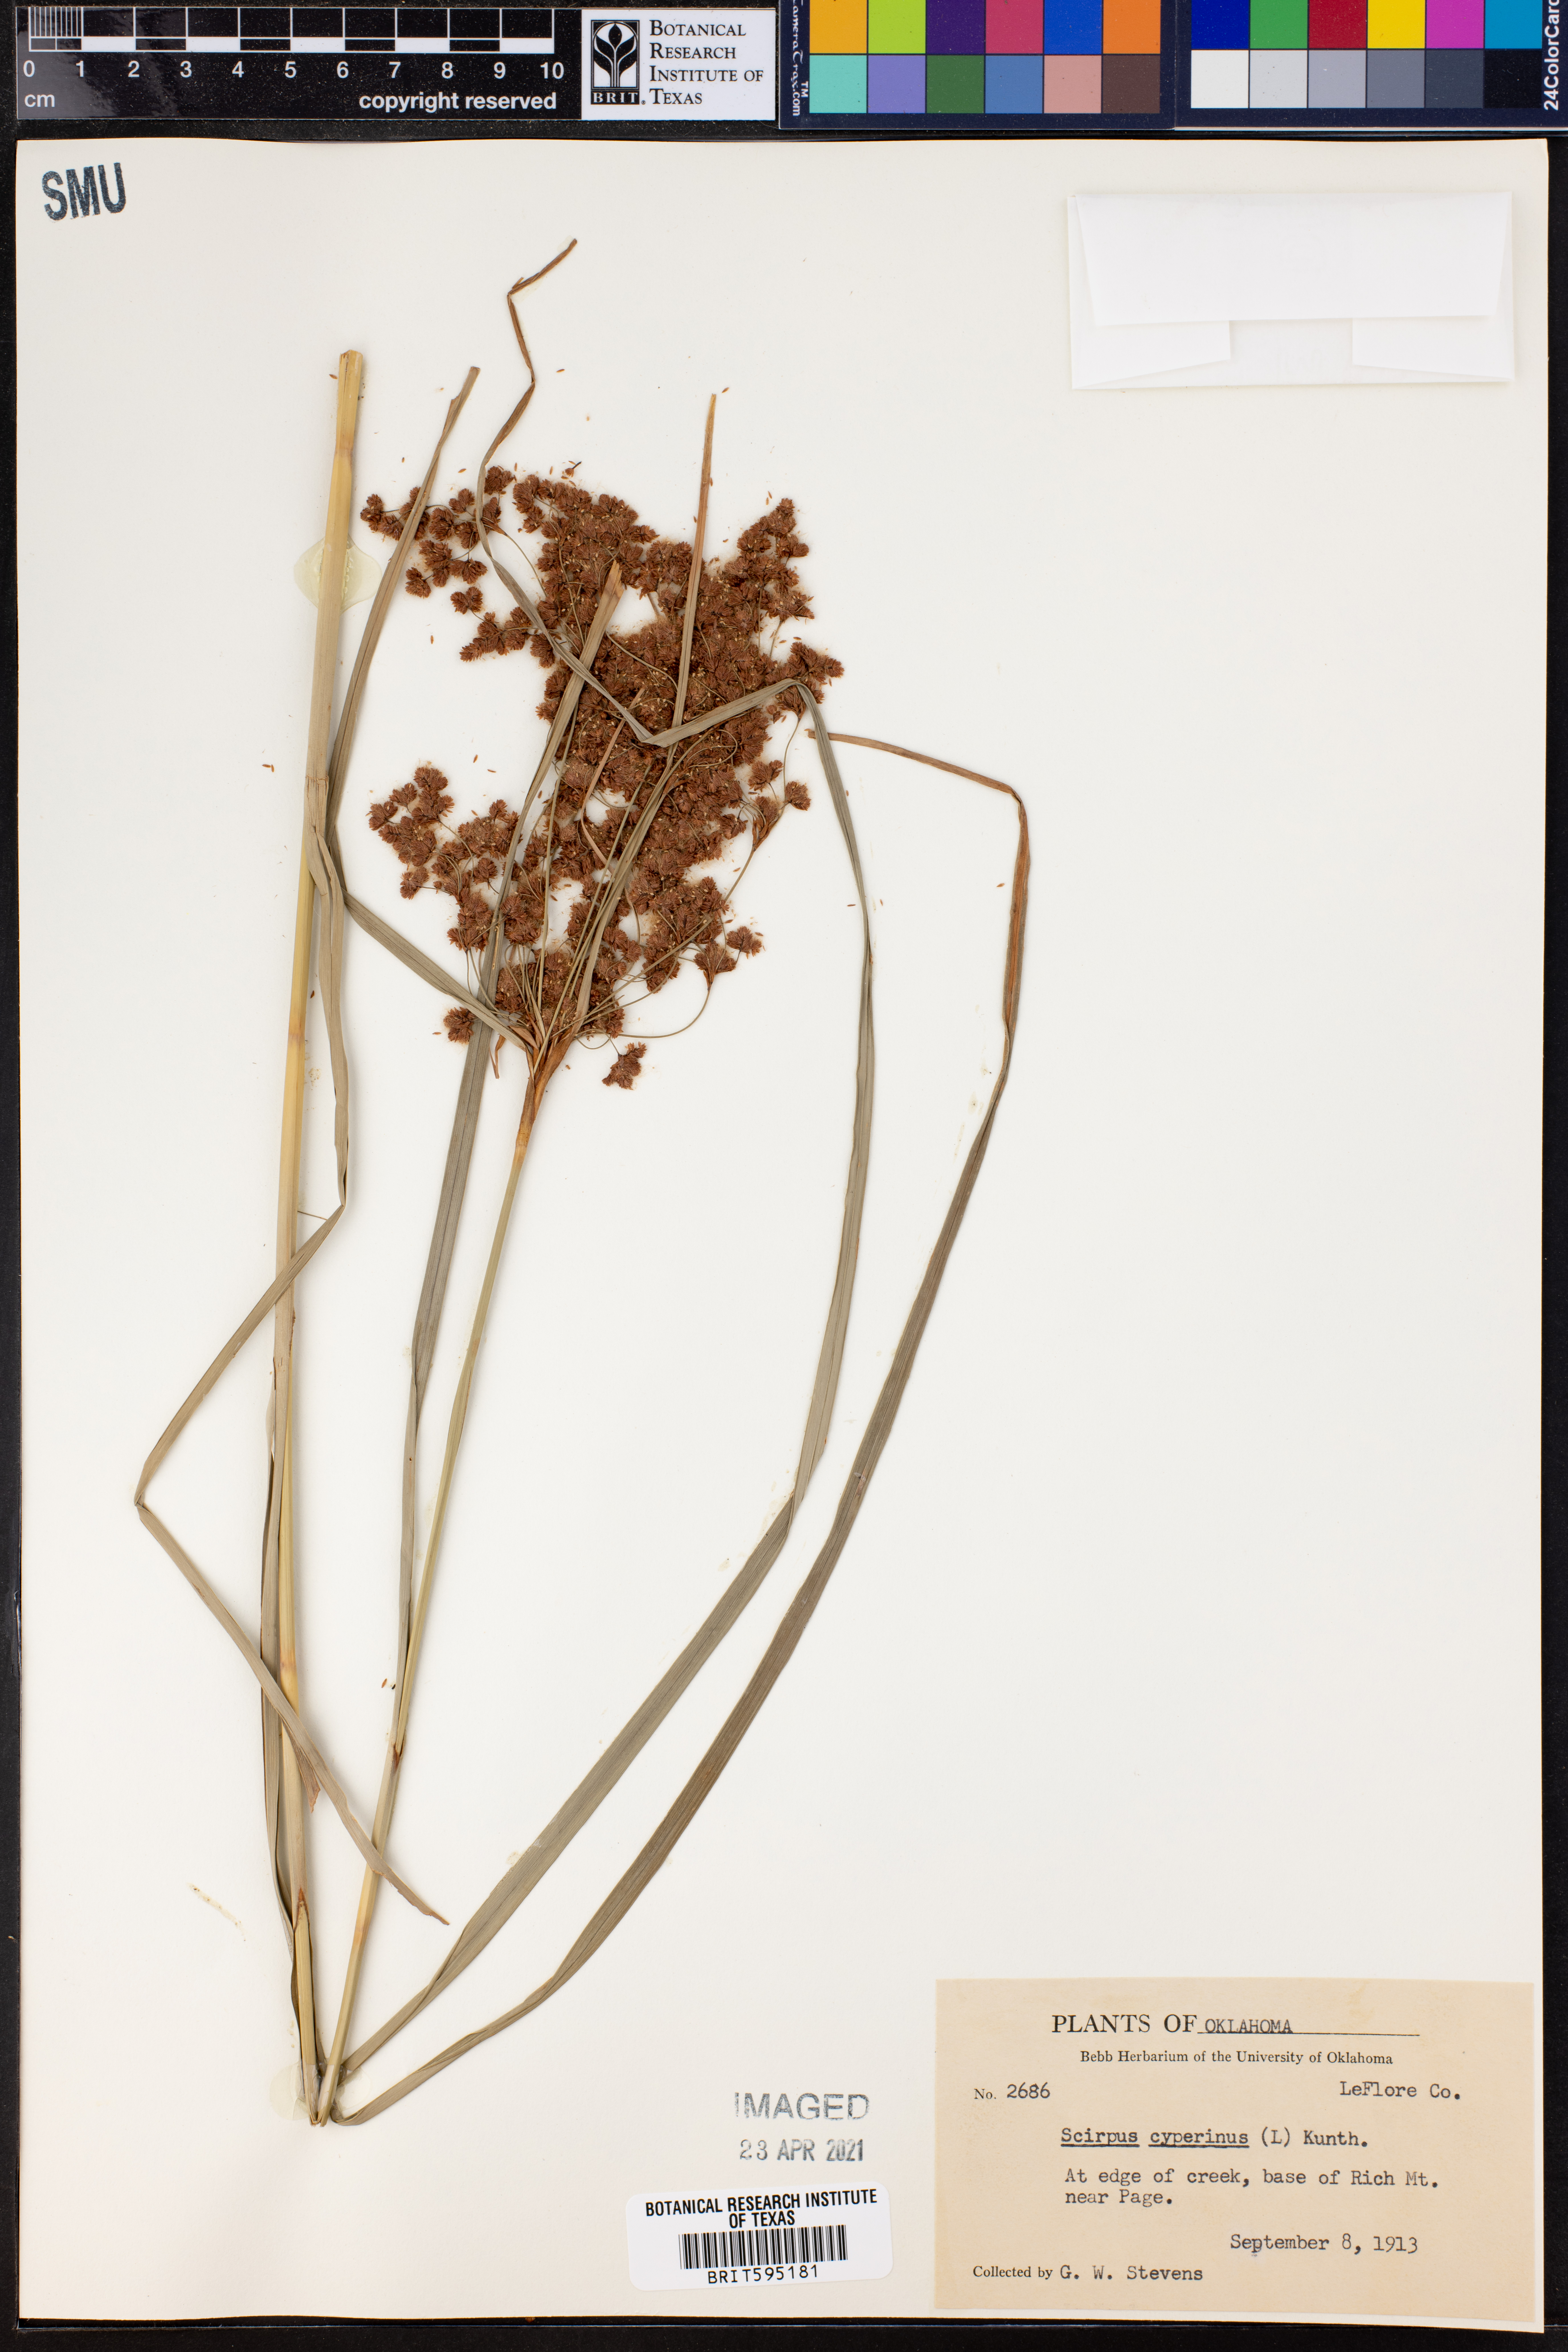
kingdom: Plantae
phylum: Tracheophyta
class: Liliopsida
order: Poales
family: Cyperaceae
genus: Scirpus
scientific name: Scirpus cyperinus
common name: Black-sheathed bulrush
